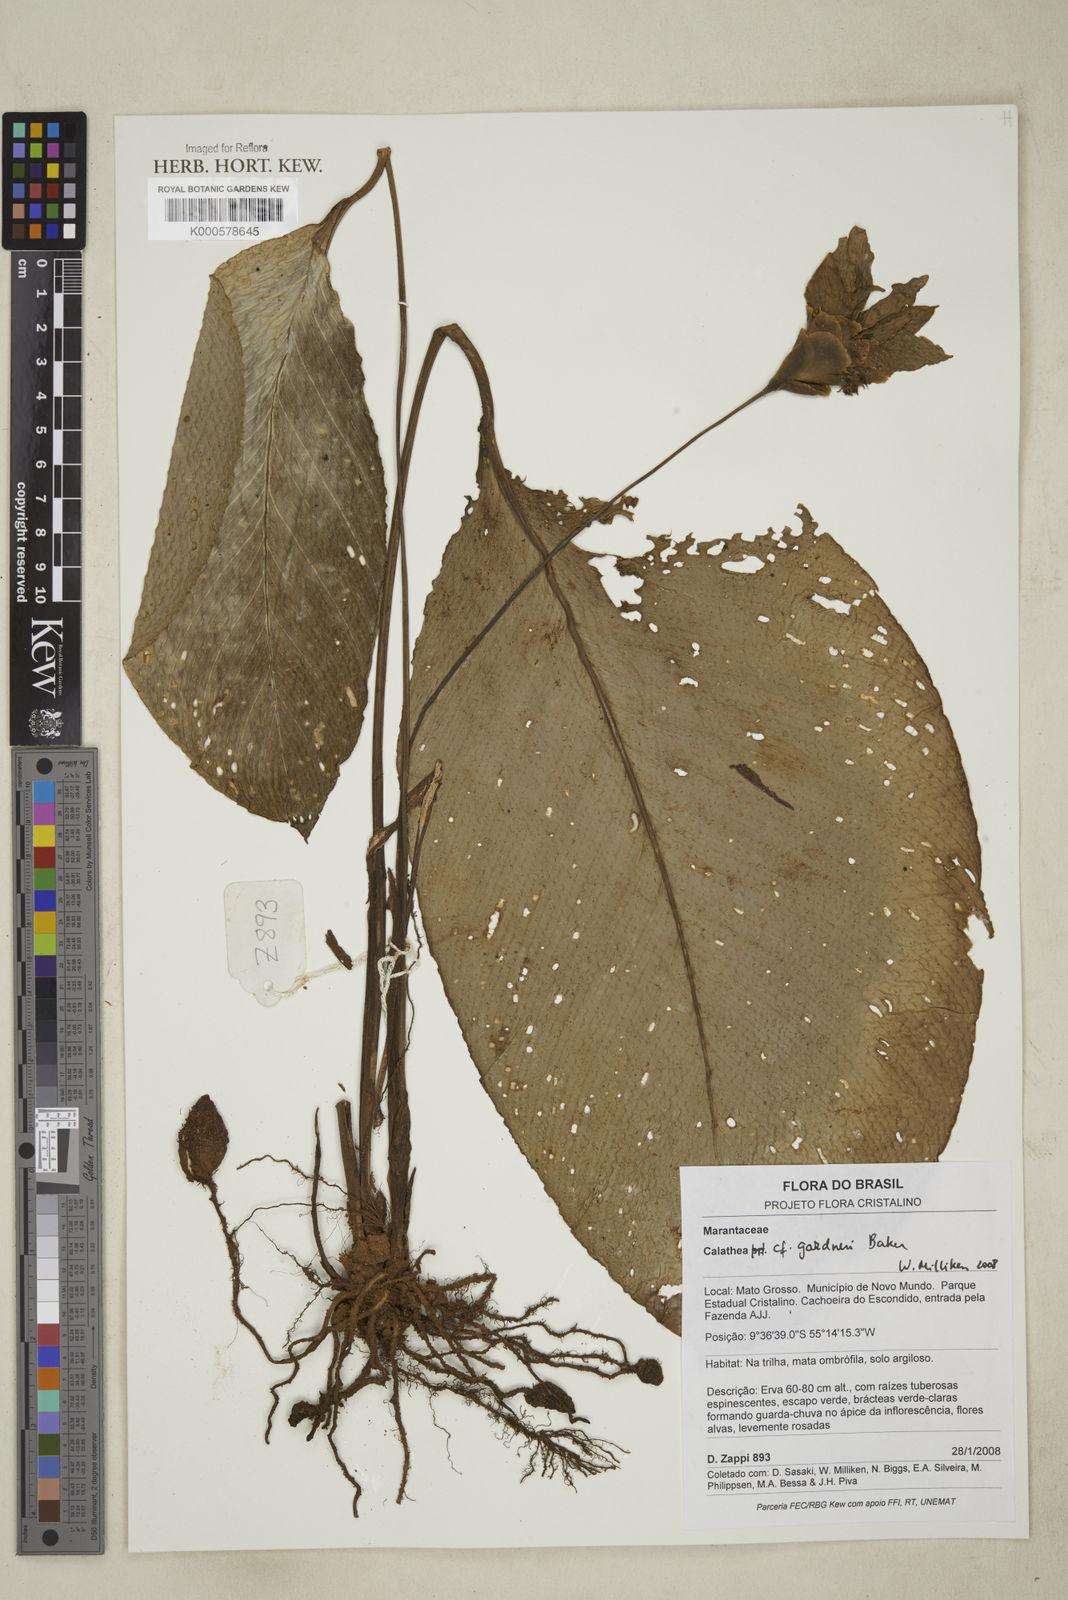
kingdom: Plantae
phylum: Tracheophyta
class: Liliopsida
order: Zingiberales
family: Marantaceae
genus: Goeppertia
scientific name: Goeppertia gardneri
